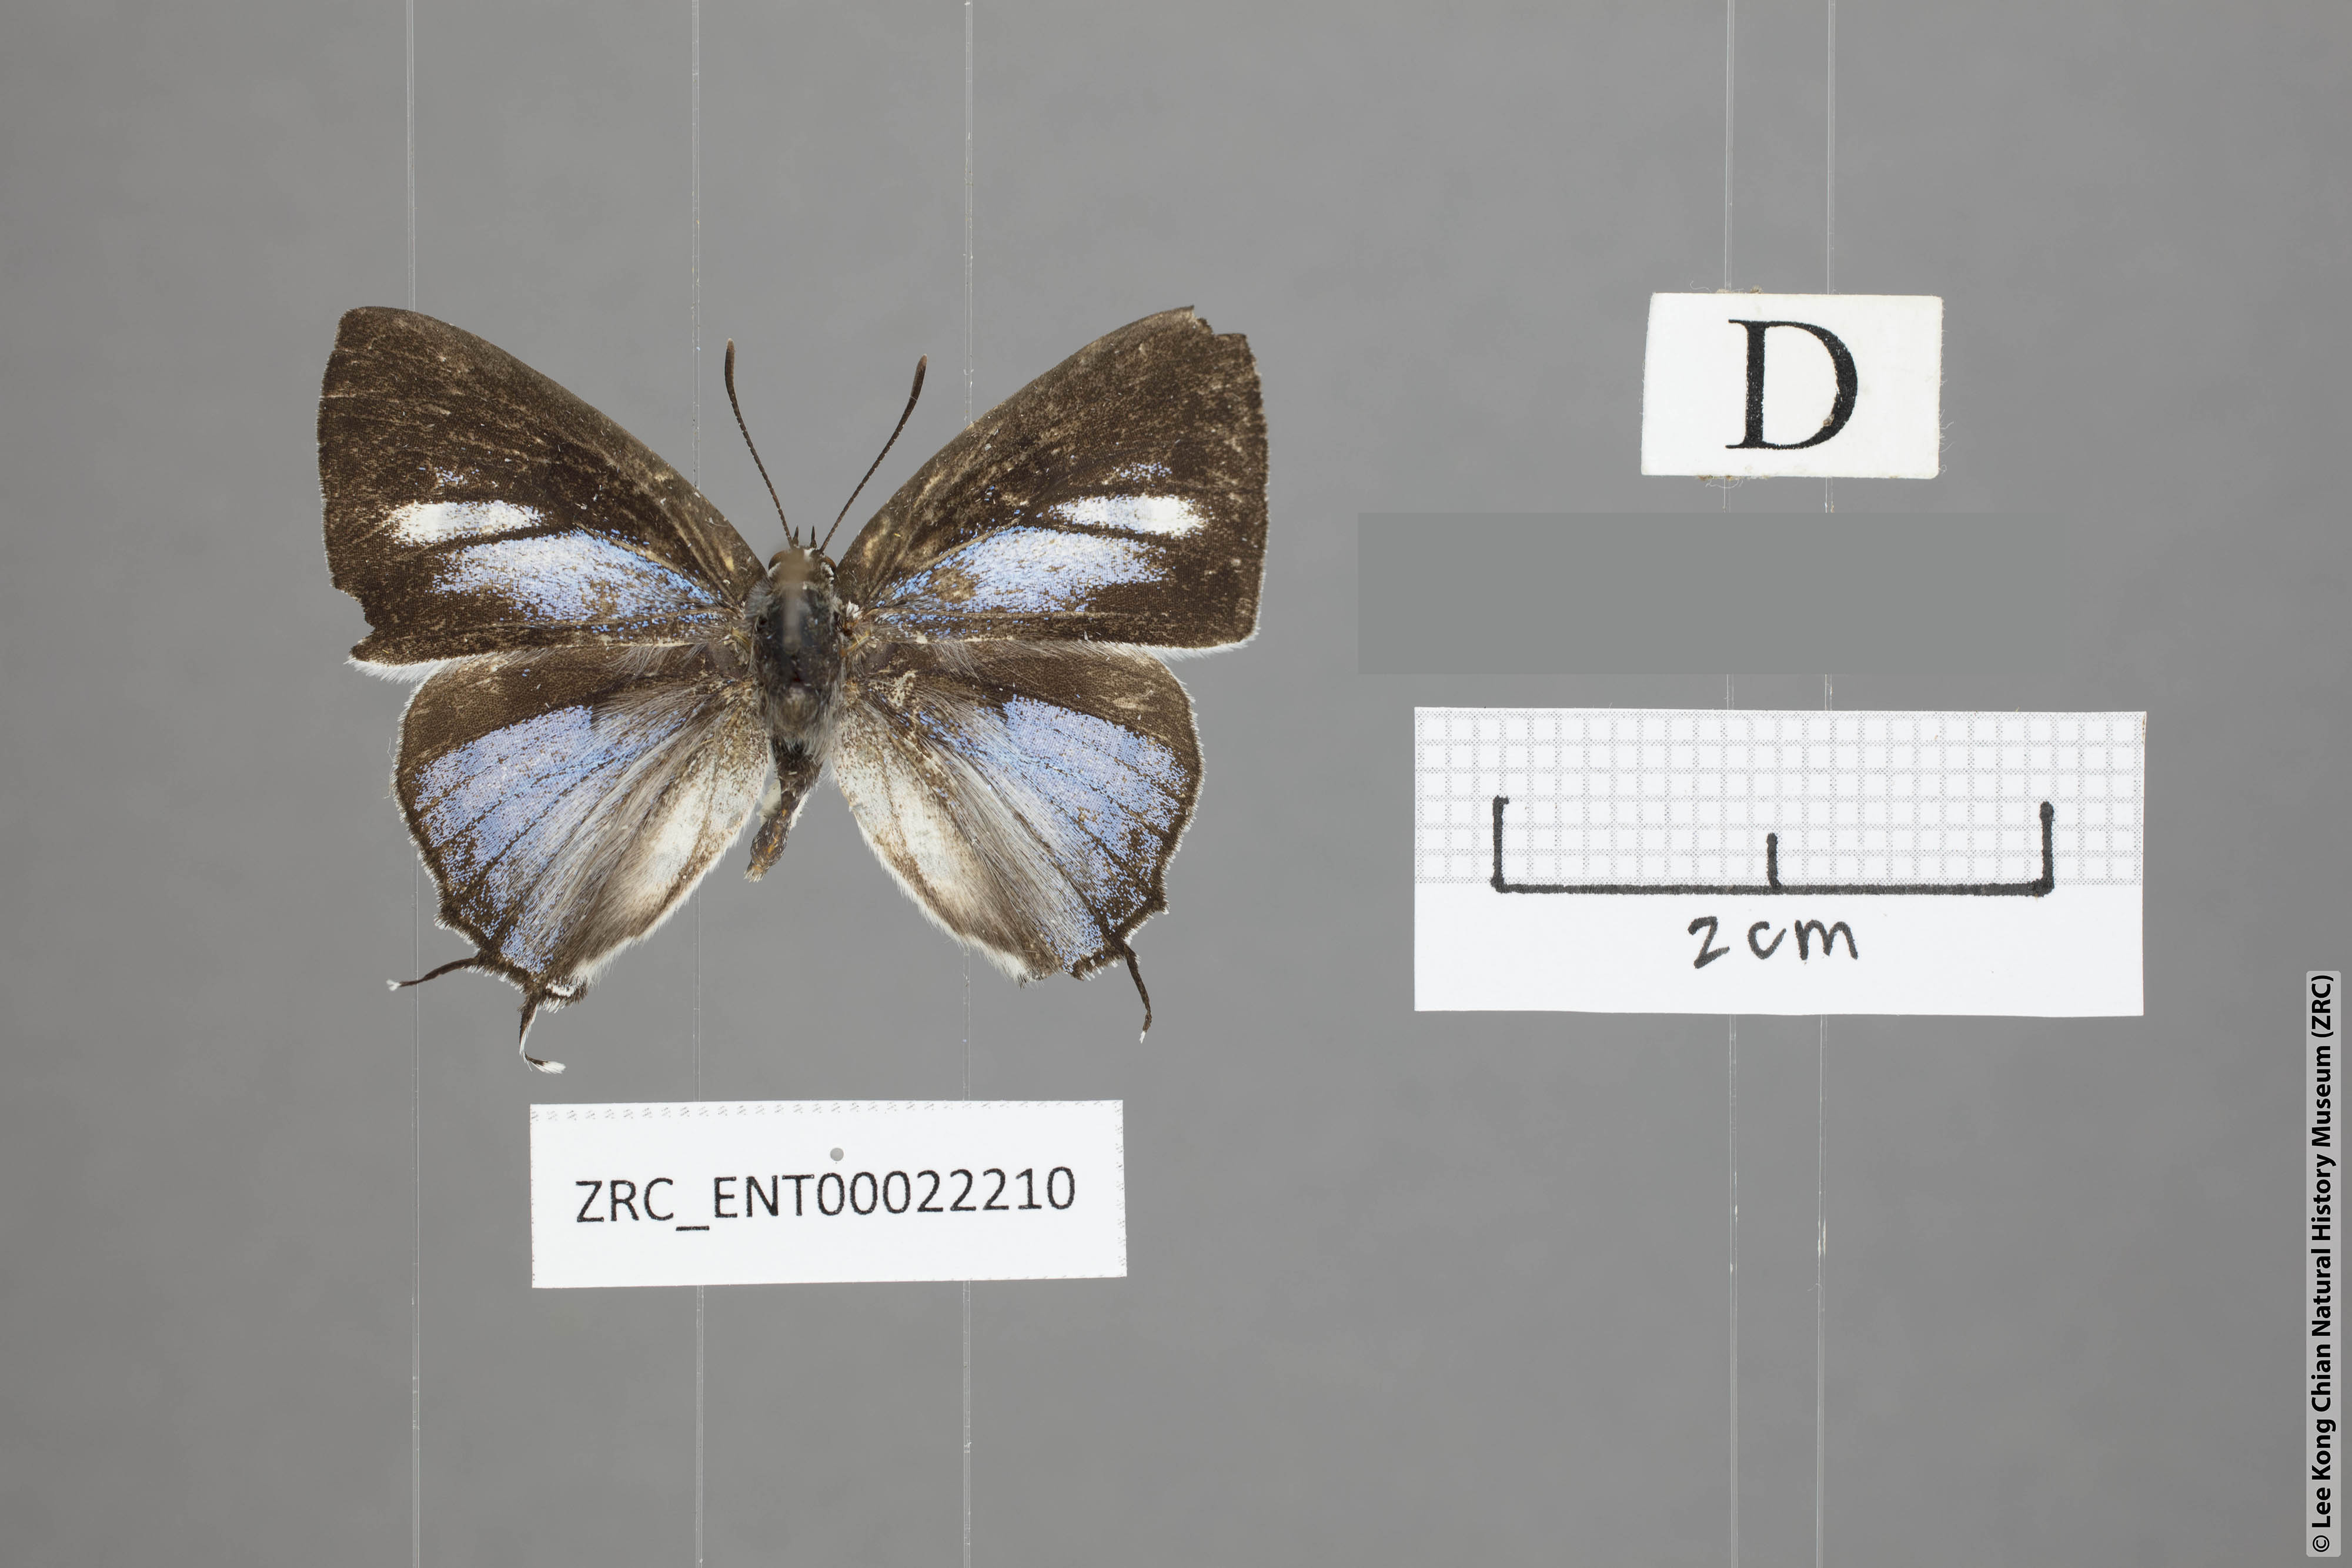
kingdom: Animalia
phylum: Arthropoda
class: Insecta
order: Lepidoptera
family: Lycaenidae
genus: Tajuria
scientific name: Tajuria maculatus
